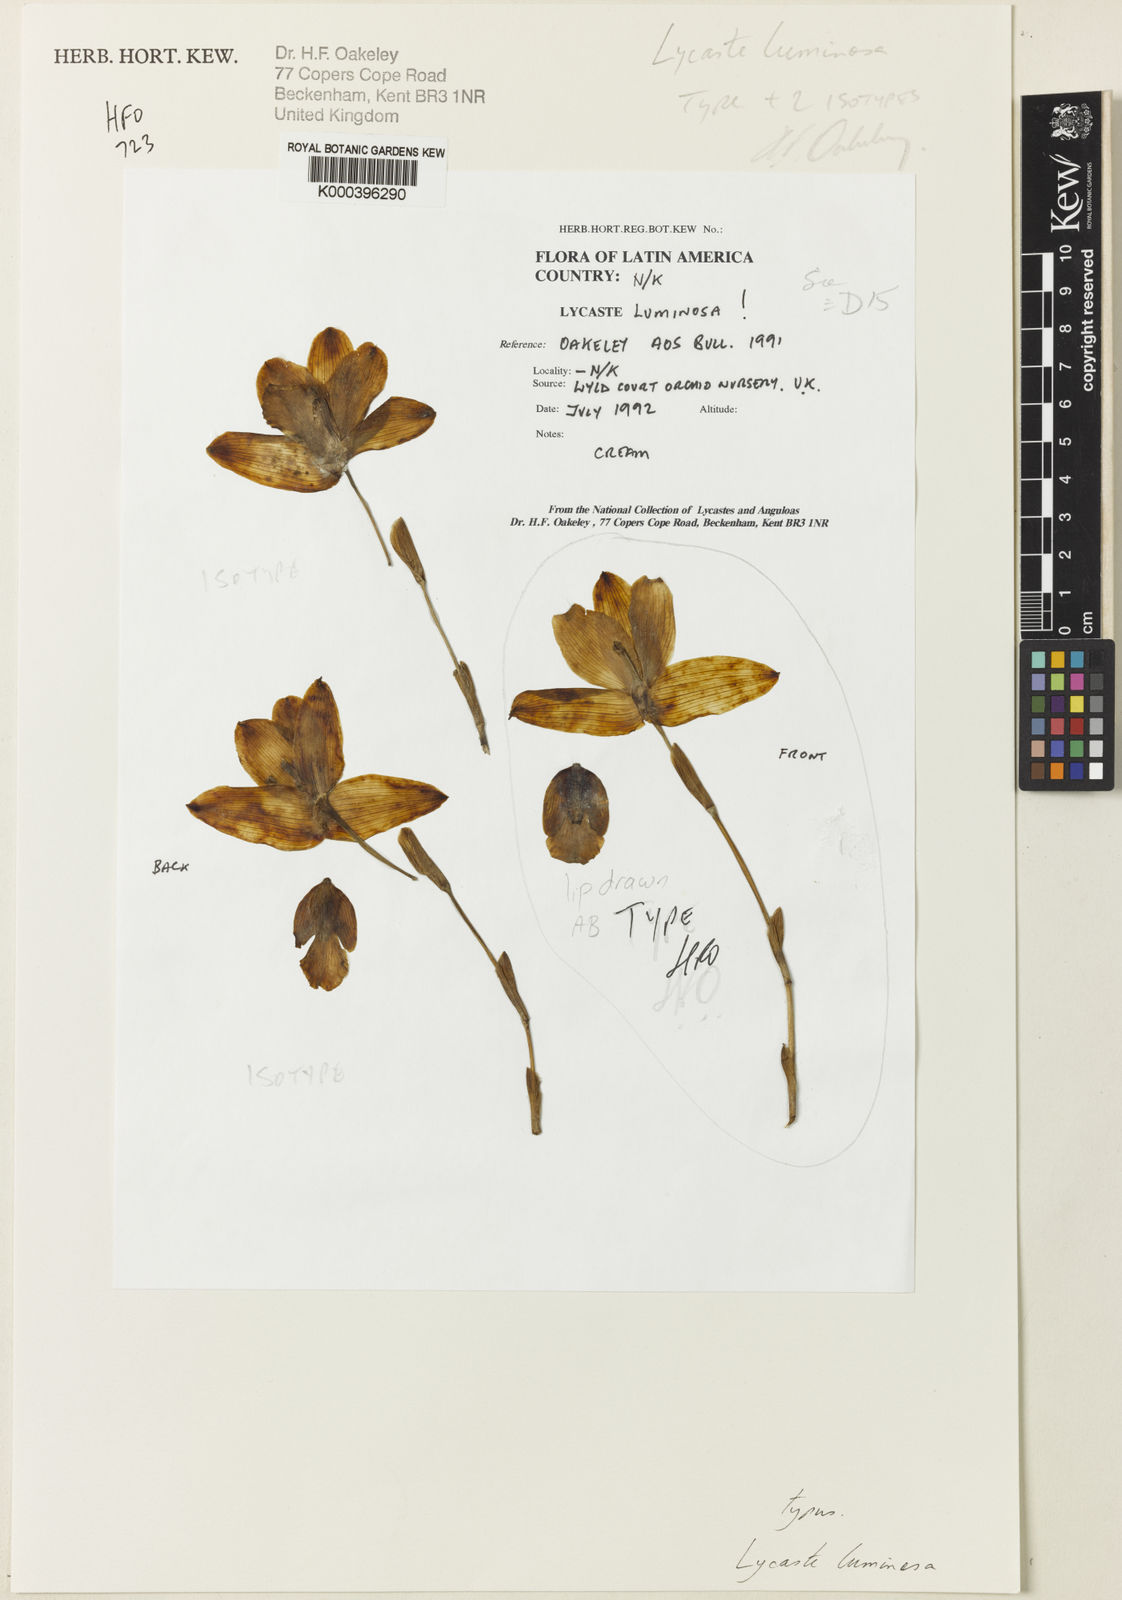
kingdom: Plantae
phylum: Tracheophyta
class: Liliopsida
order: Asparagales
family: Orchidaceae
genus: Lycaste
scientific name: Lycaste luminosa
